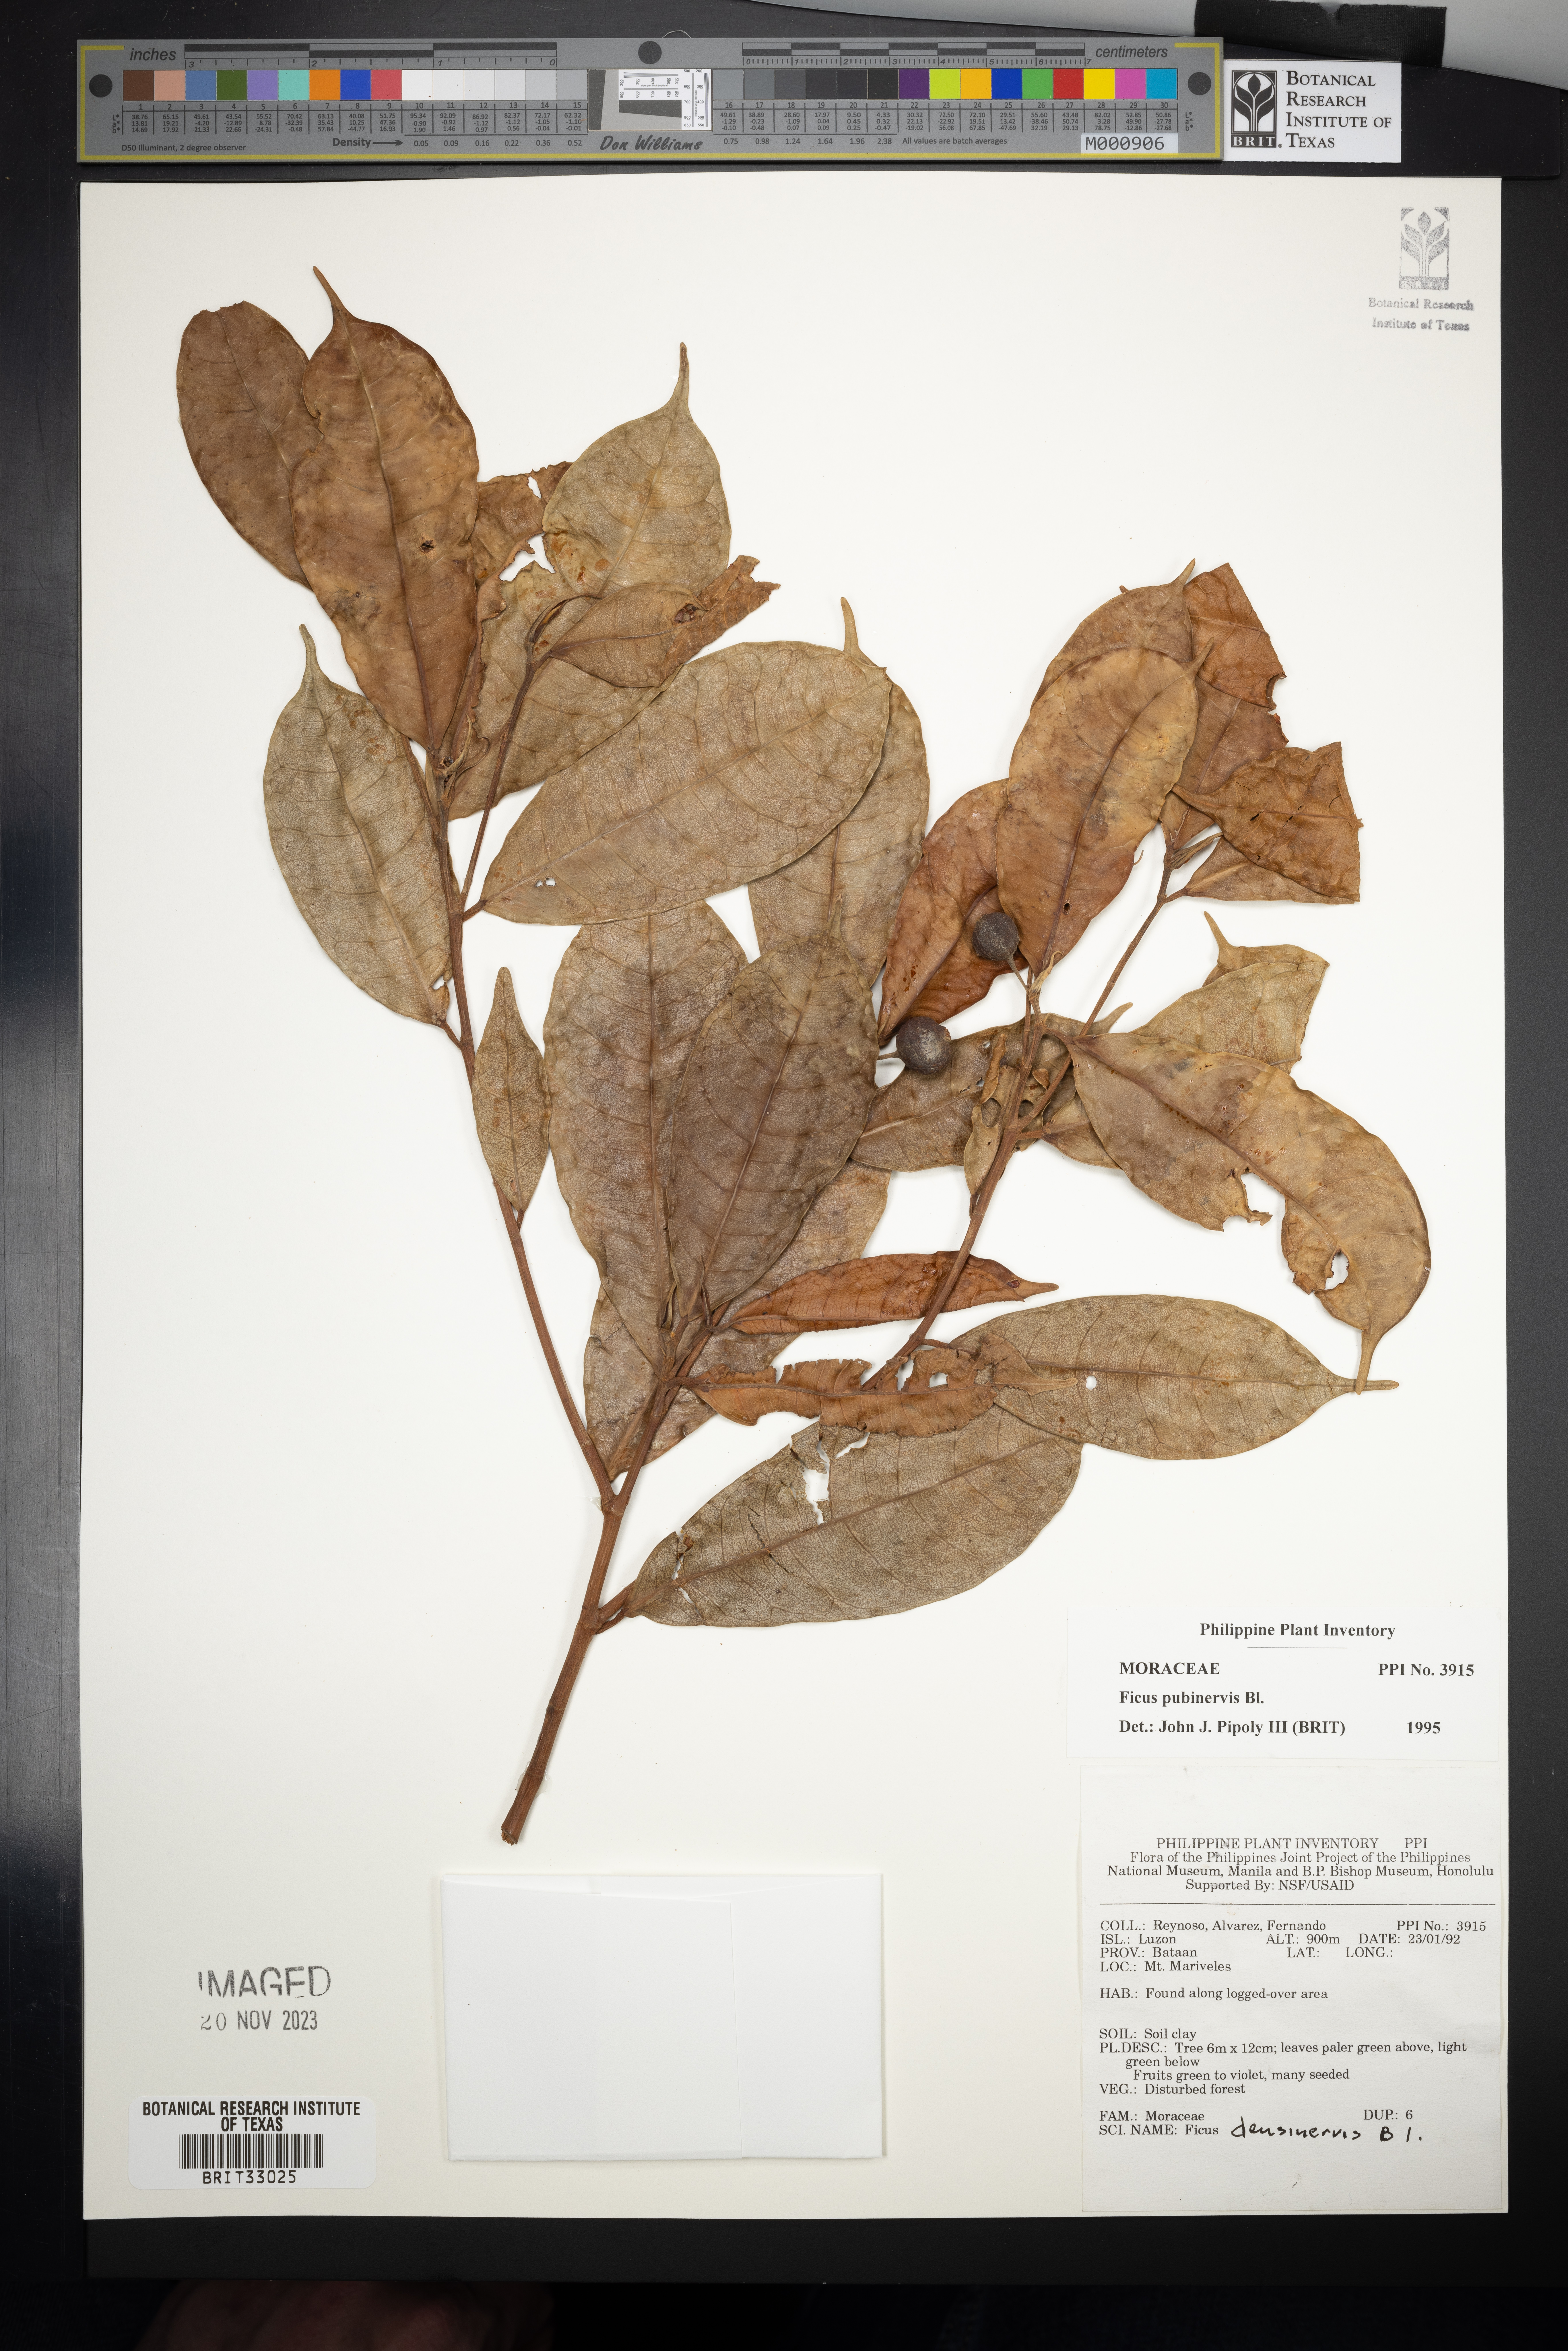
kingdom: Plantae
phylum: Tracheophyta
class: Magnoliopsida
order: Rosales
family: Moraceae
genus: Ficus
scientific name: Ficus nervosa
